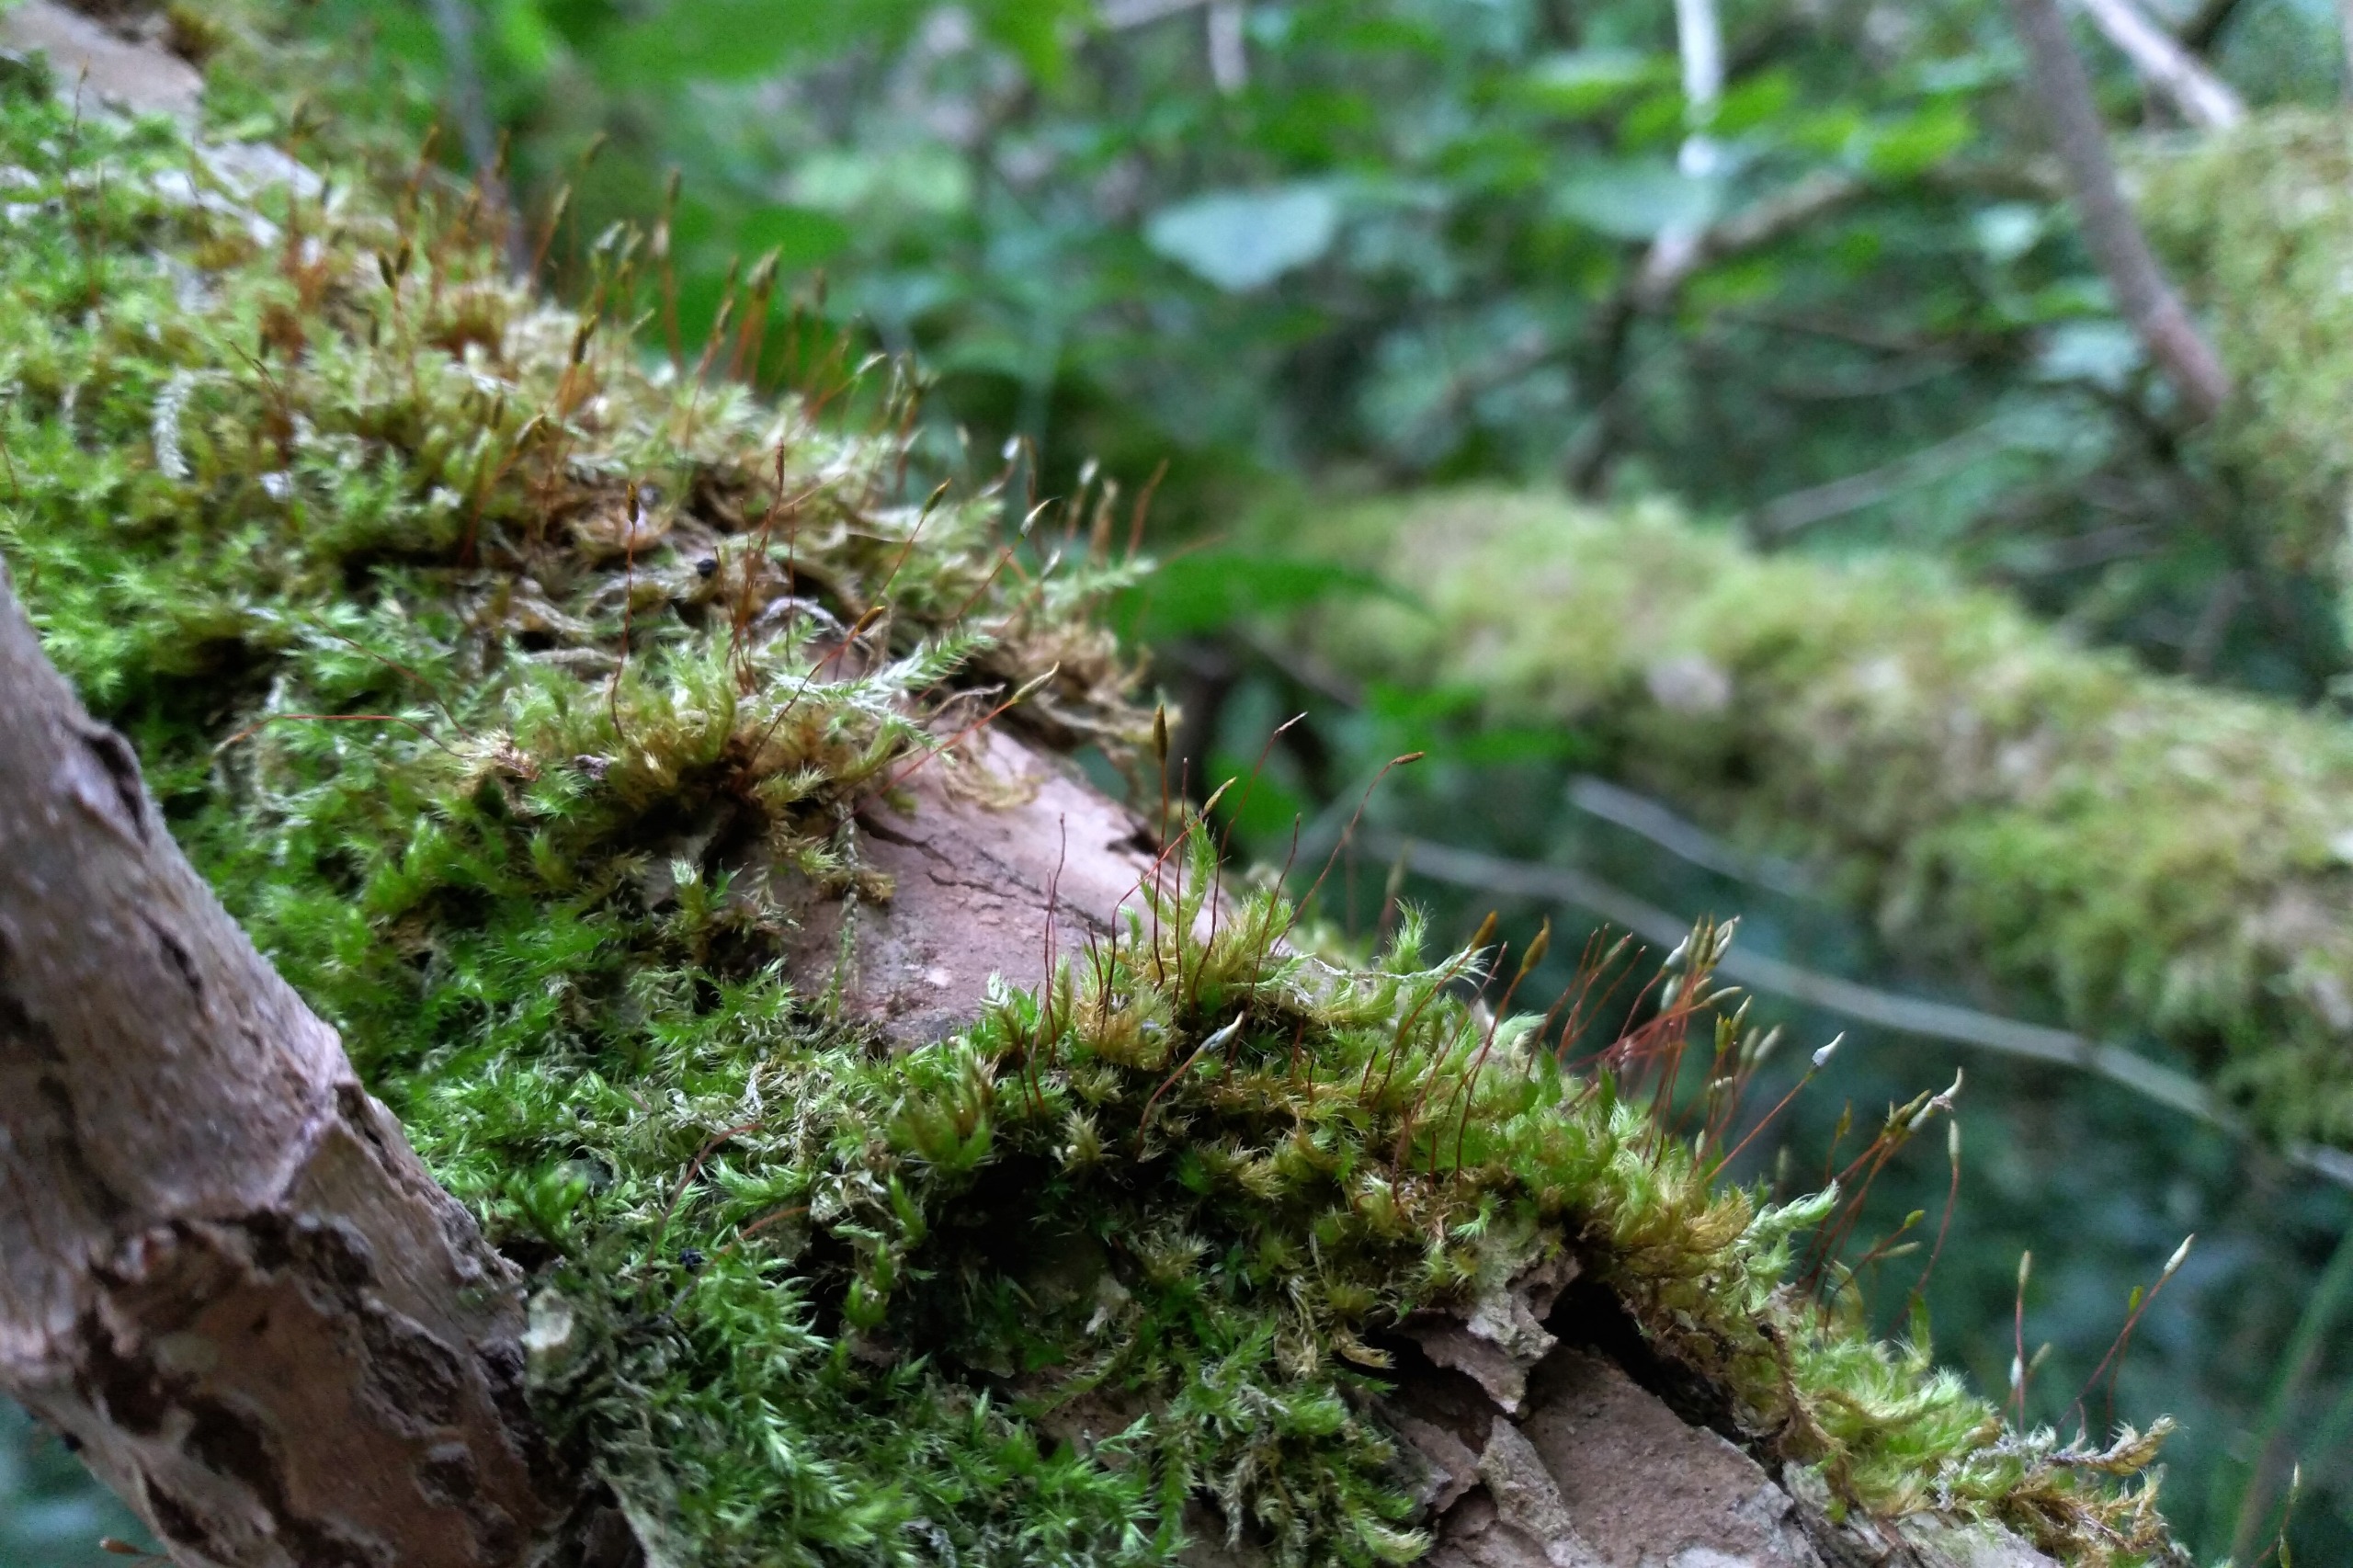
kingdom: Plantae
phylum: Bryophyta
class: Bryopsida
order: Hypnales
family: Pylaisiaceae
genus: Pylaisia
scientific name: Pylaisia polyantha
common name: Mangefrugtet aspemos
